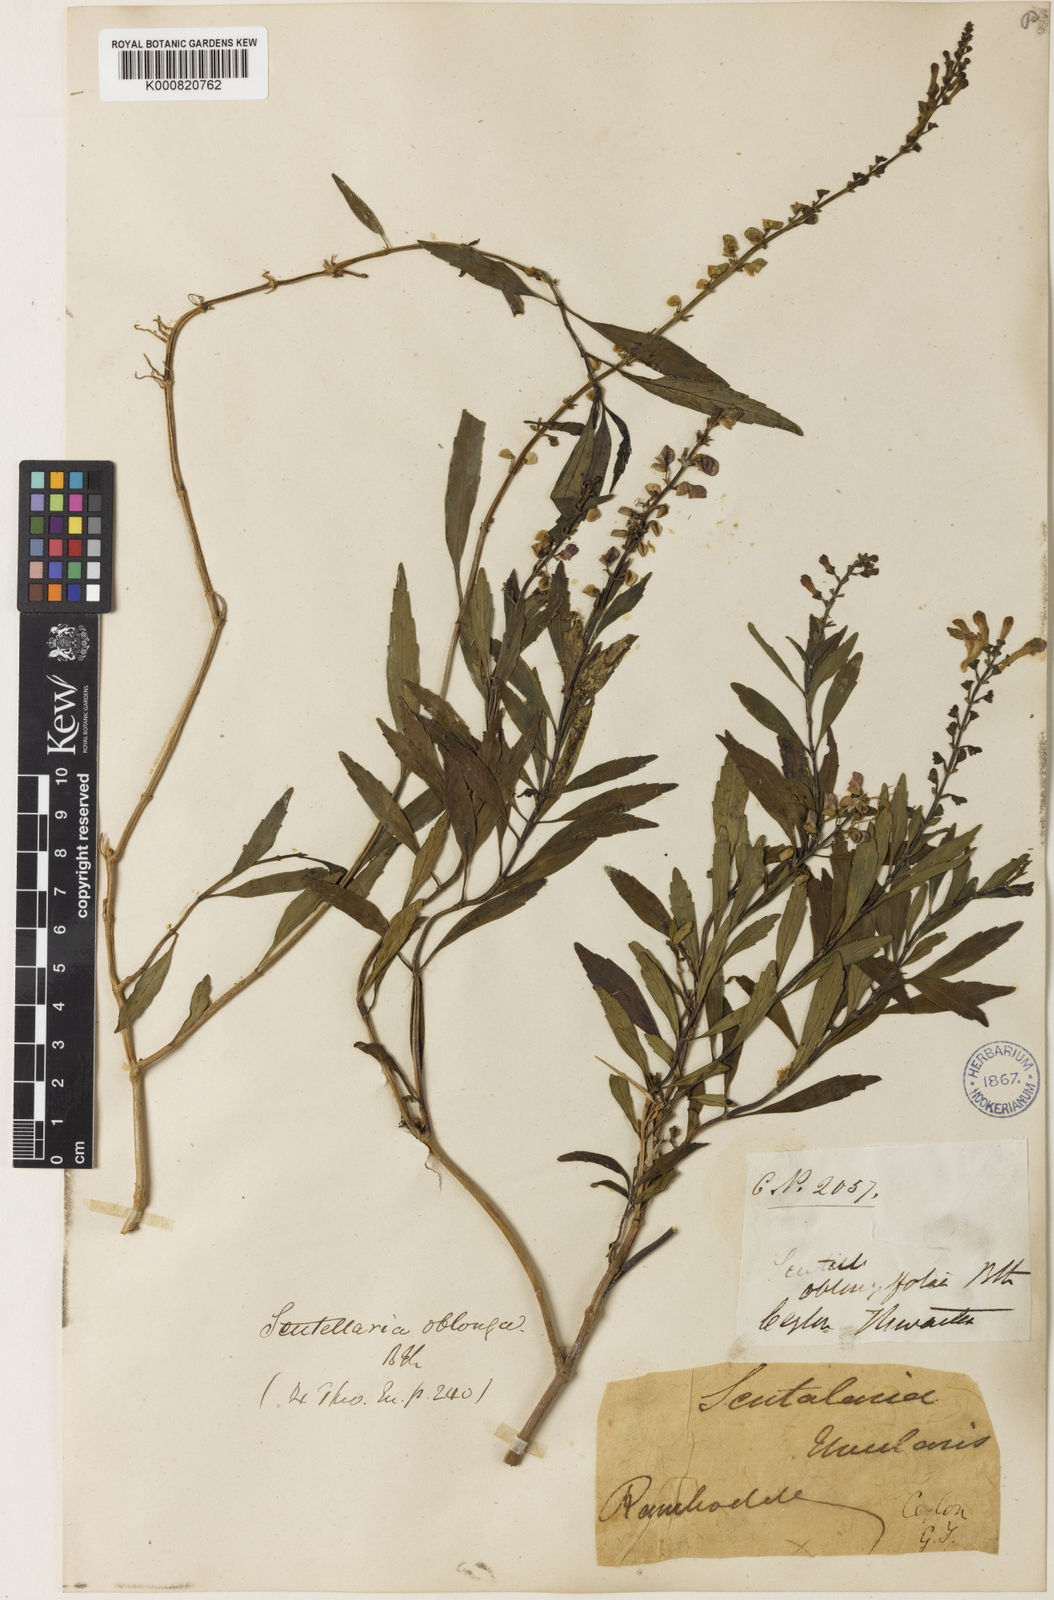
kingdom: Plantae
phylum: Tracheophyta
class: Magnoliopsida
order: Lamiales
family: Lamiaceae
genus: Scutellaria
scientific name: Scutellaria oblonga
